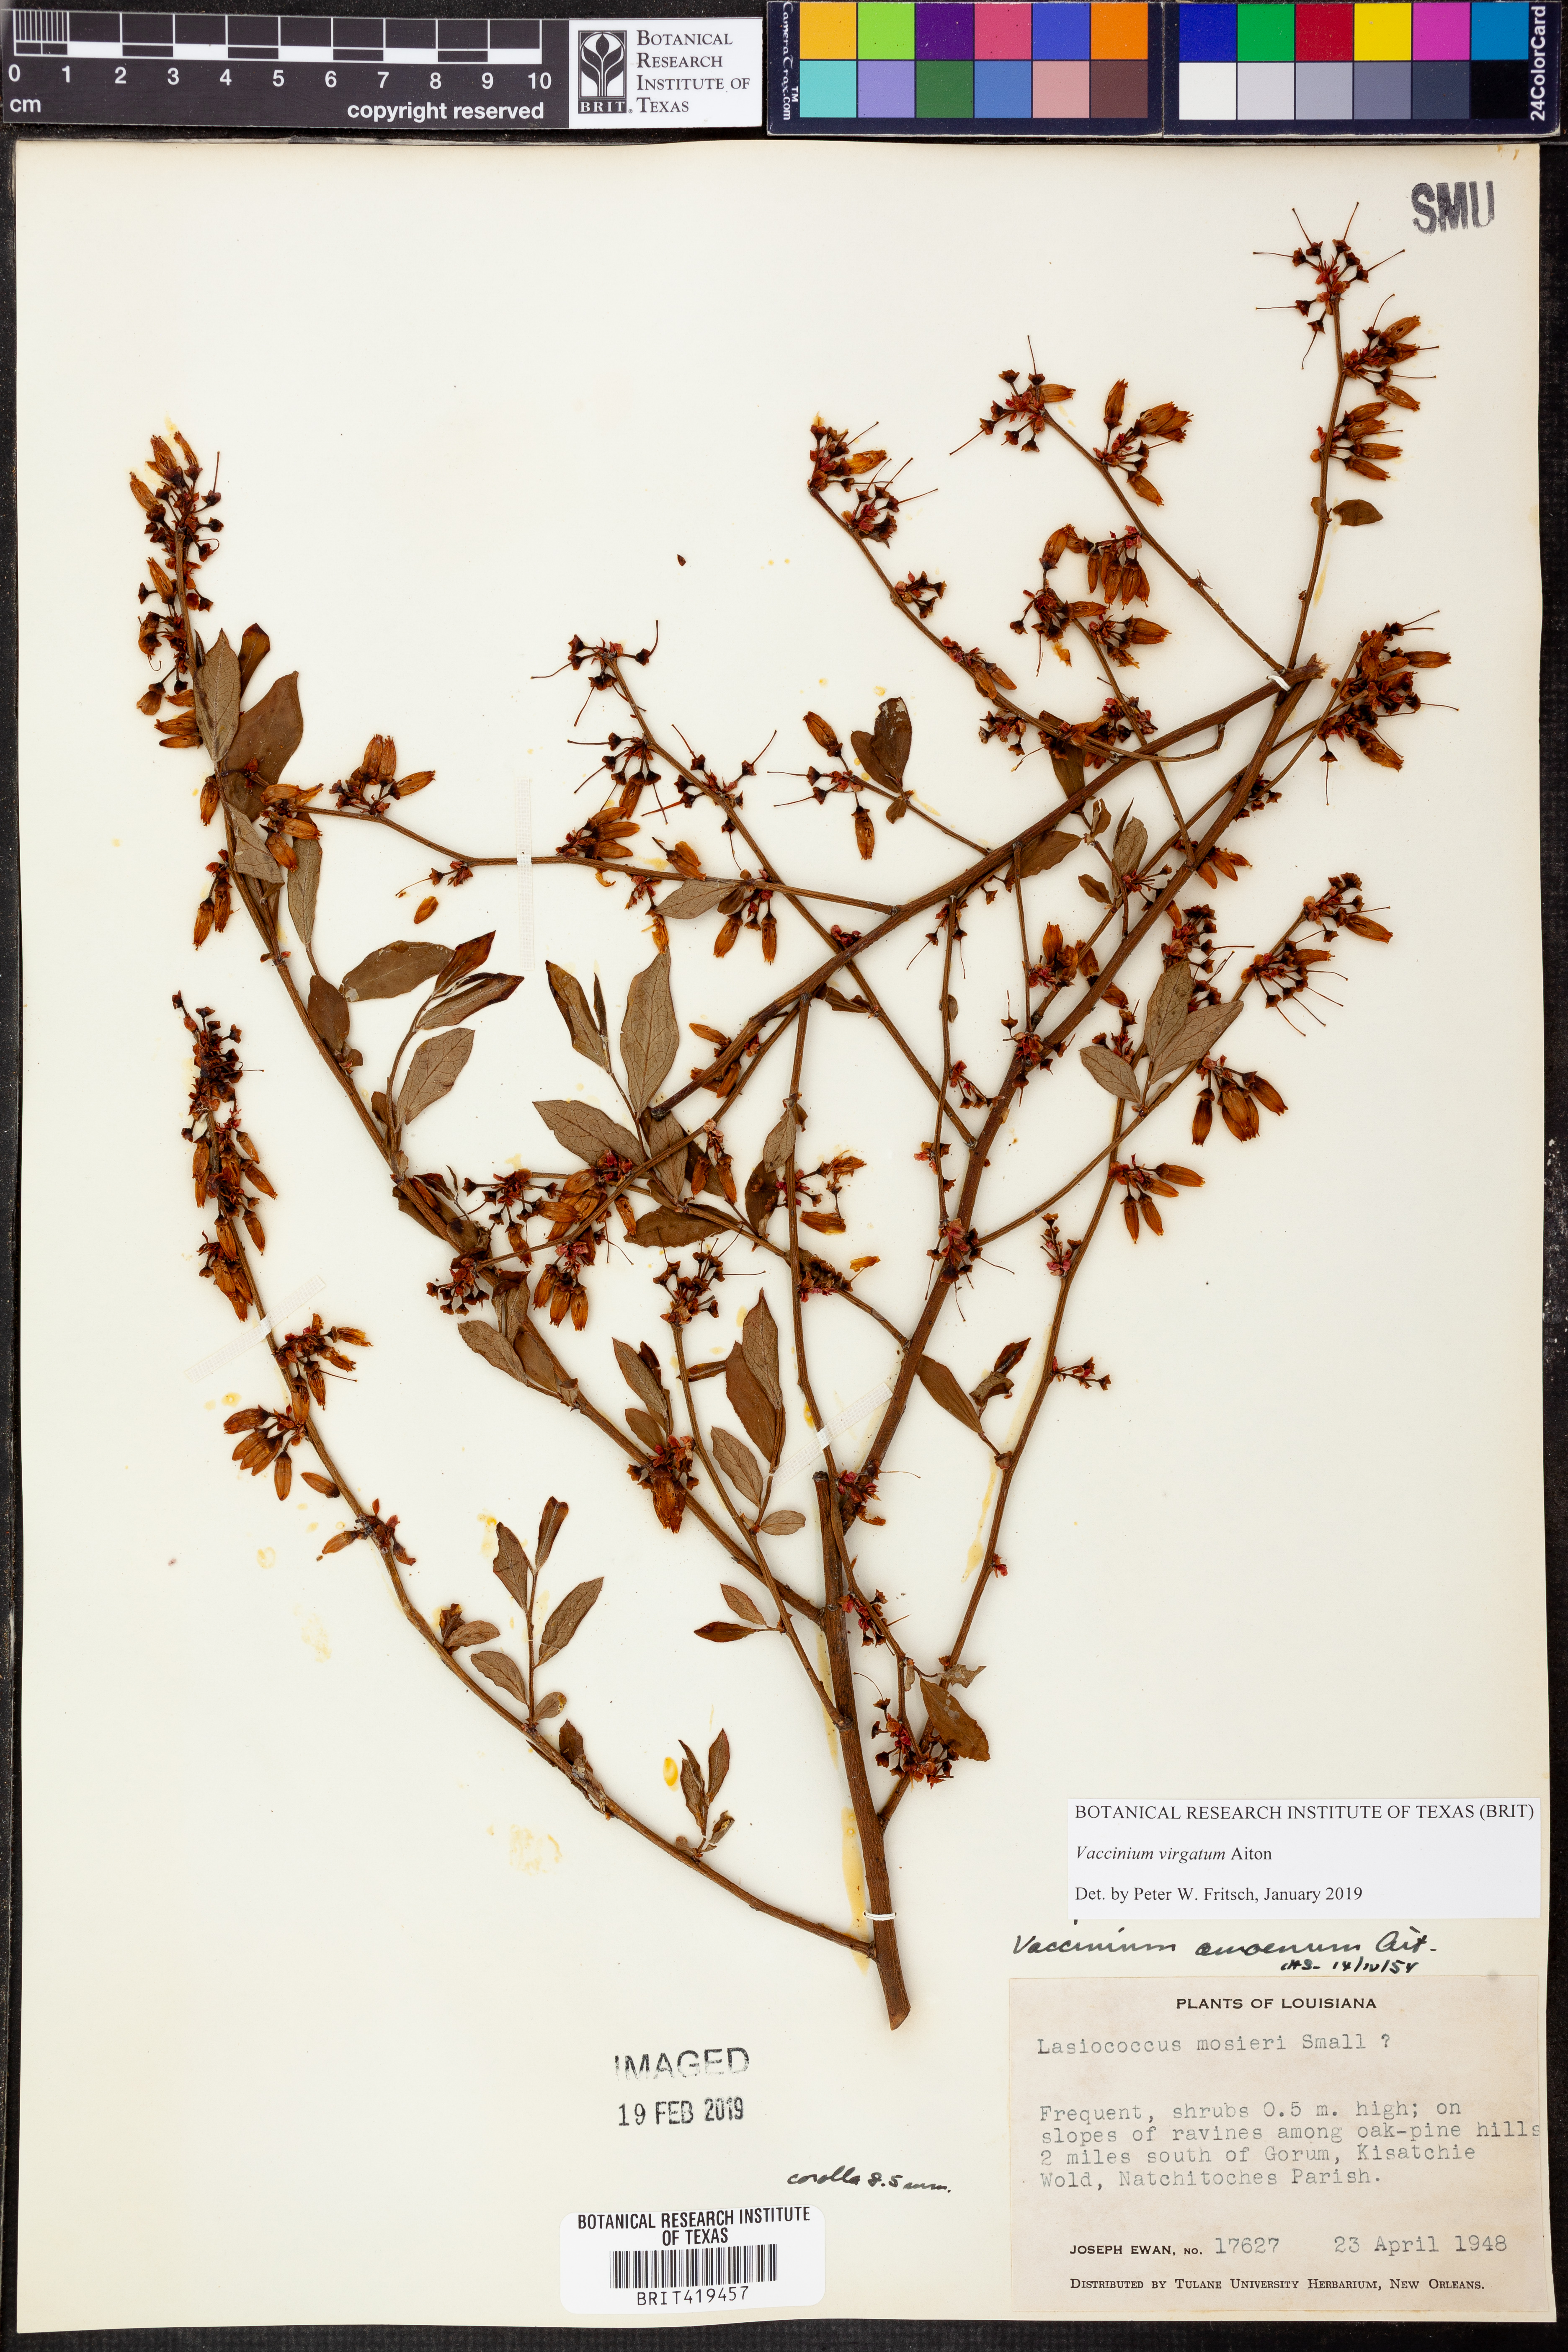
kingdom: Plantae
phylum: Tracheophyta
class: Magnoliopsida
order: Ericales
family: Ericaceae
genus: Vaccinium
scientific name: Vaccinium corymbosum
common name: Blueberry
